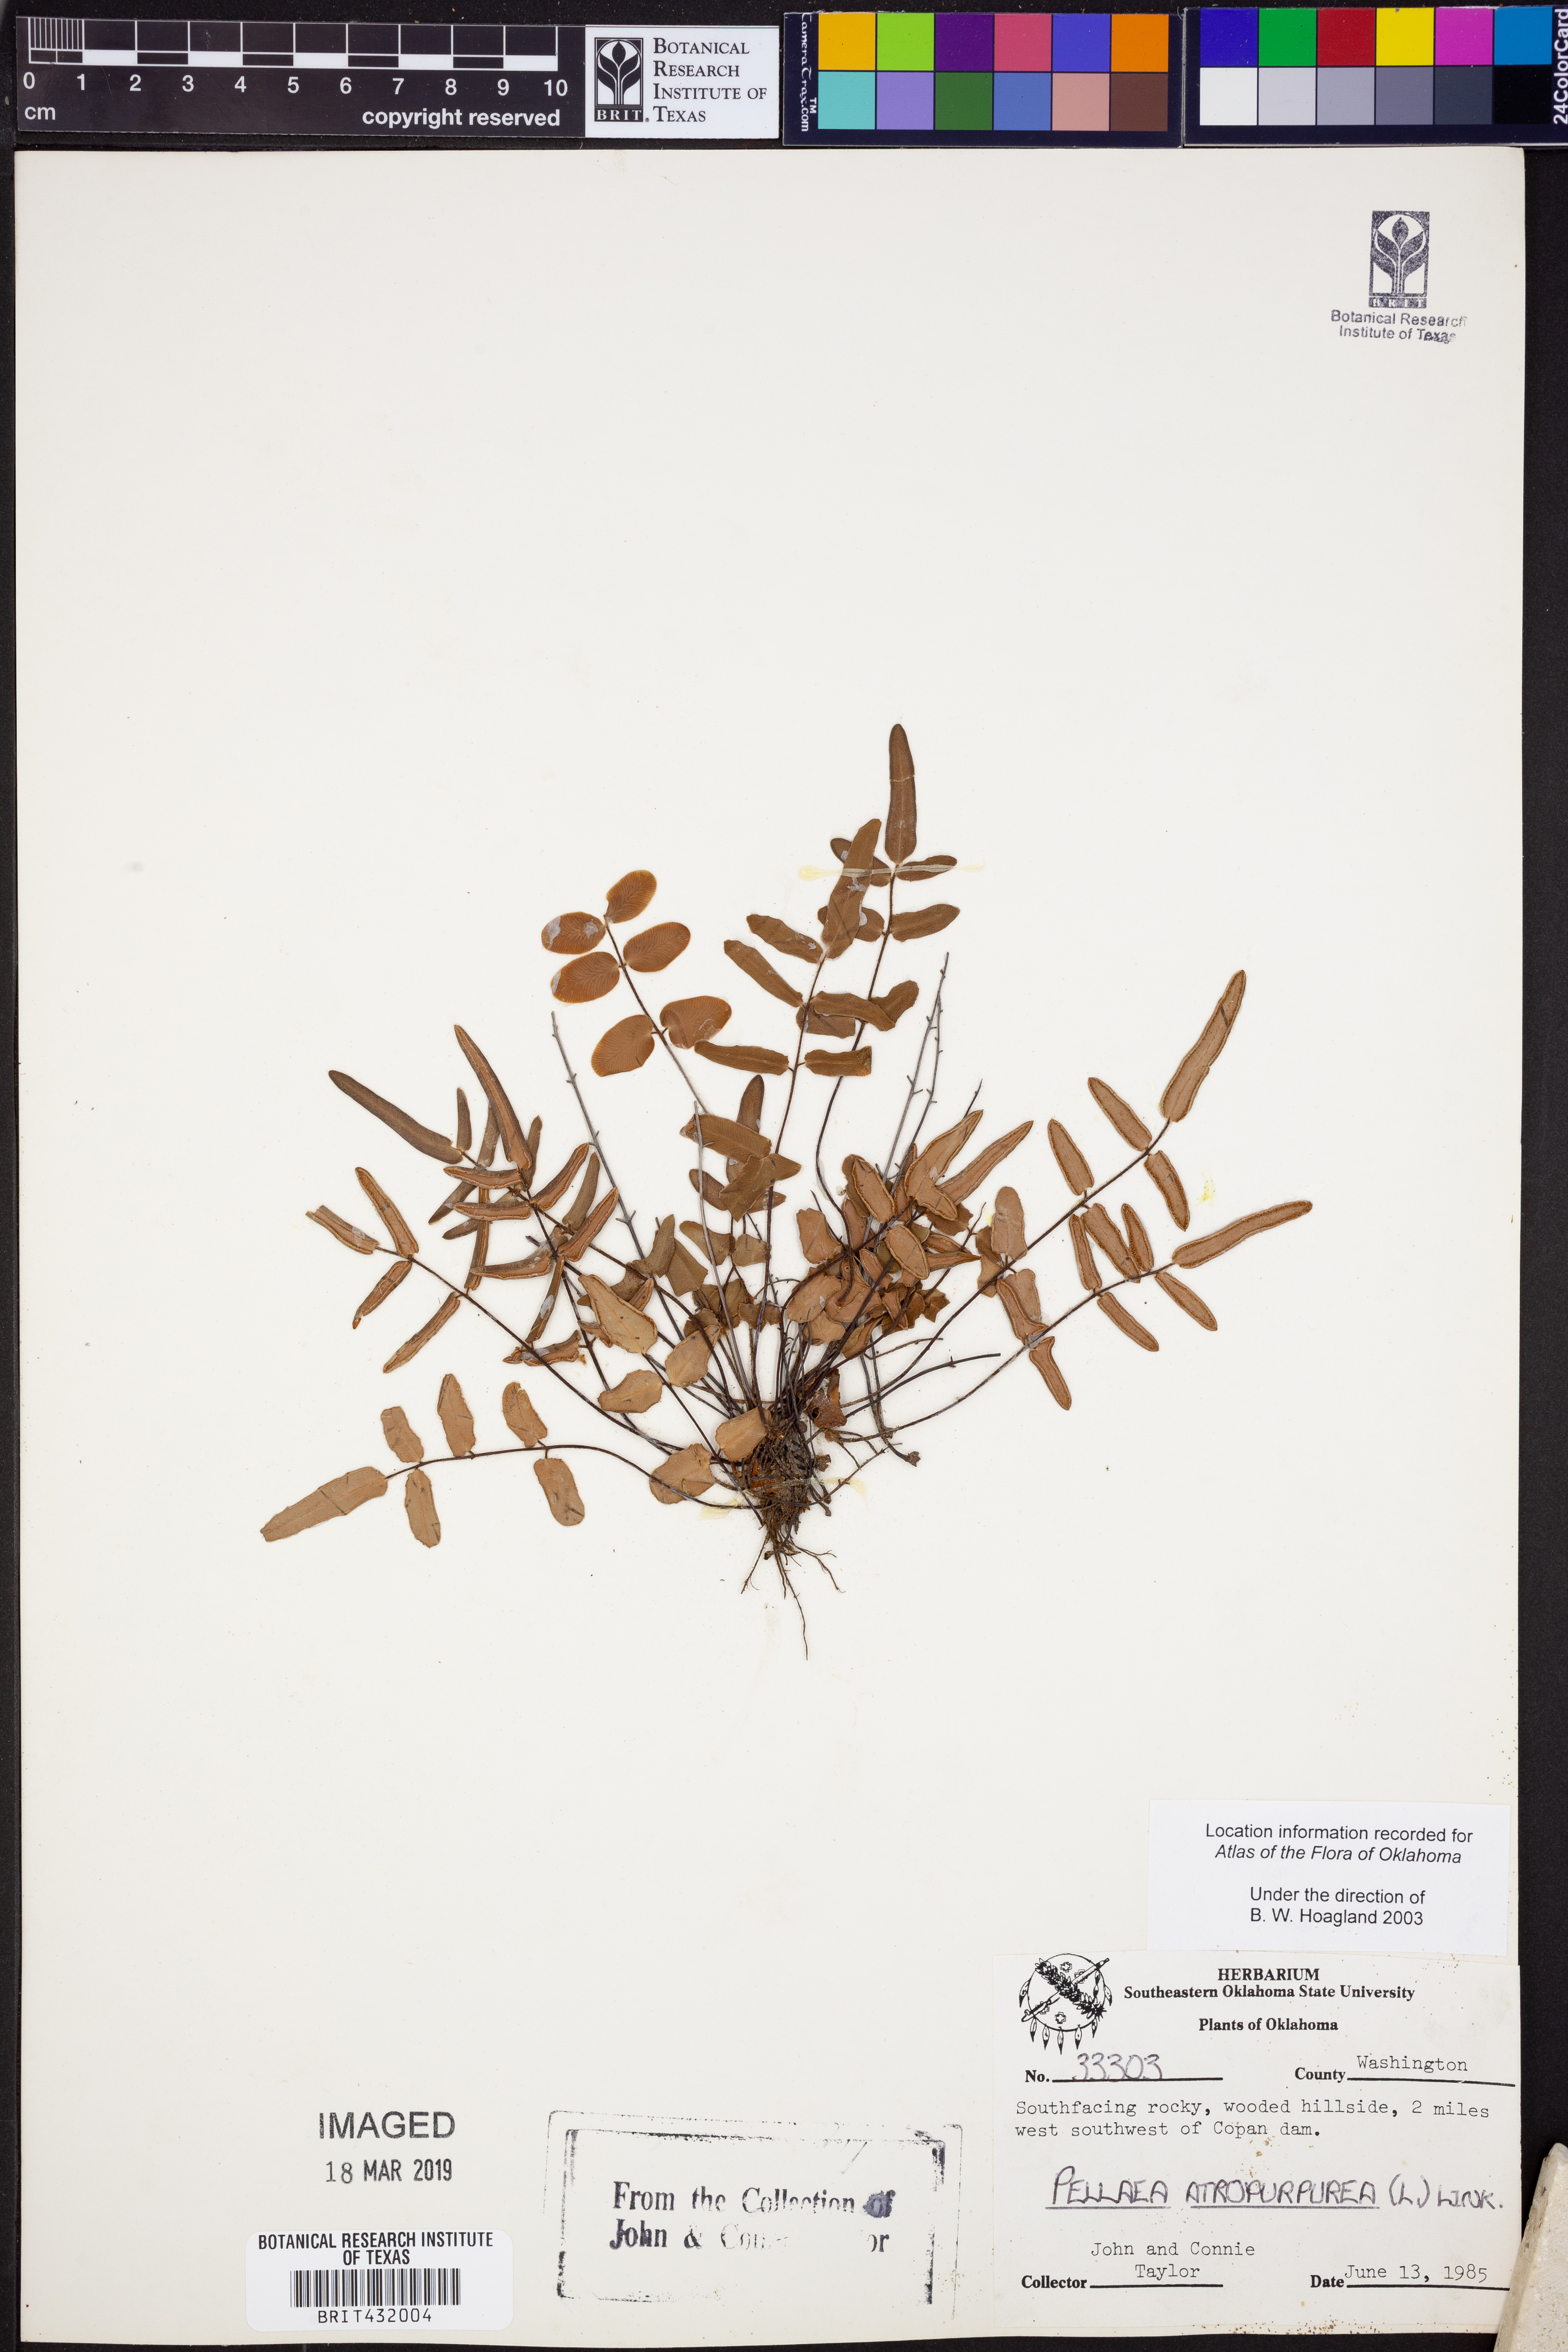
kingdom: Plantae
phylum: Tracheophyta
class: Polypodiopsida
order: Polypodiales
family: Pteridaceae
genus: Pellaea
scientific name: Pellaea atropurpurea
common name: Hairy cliffbrake
